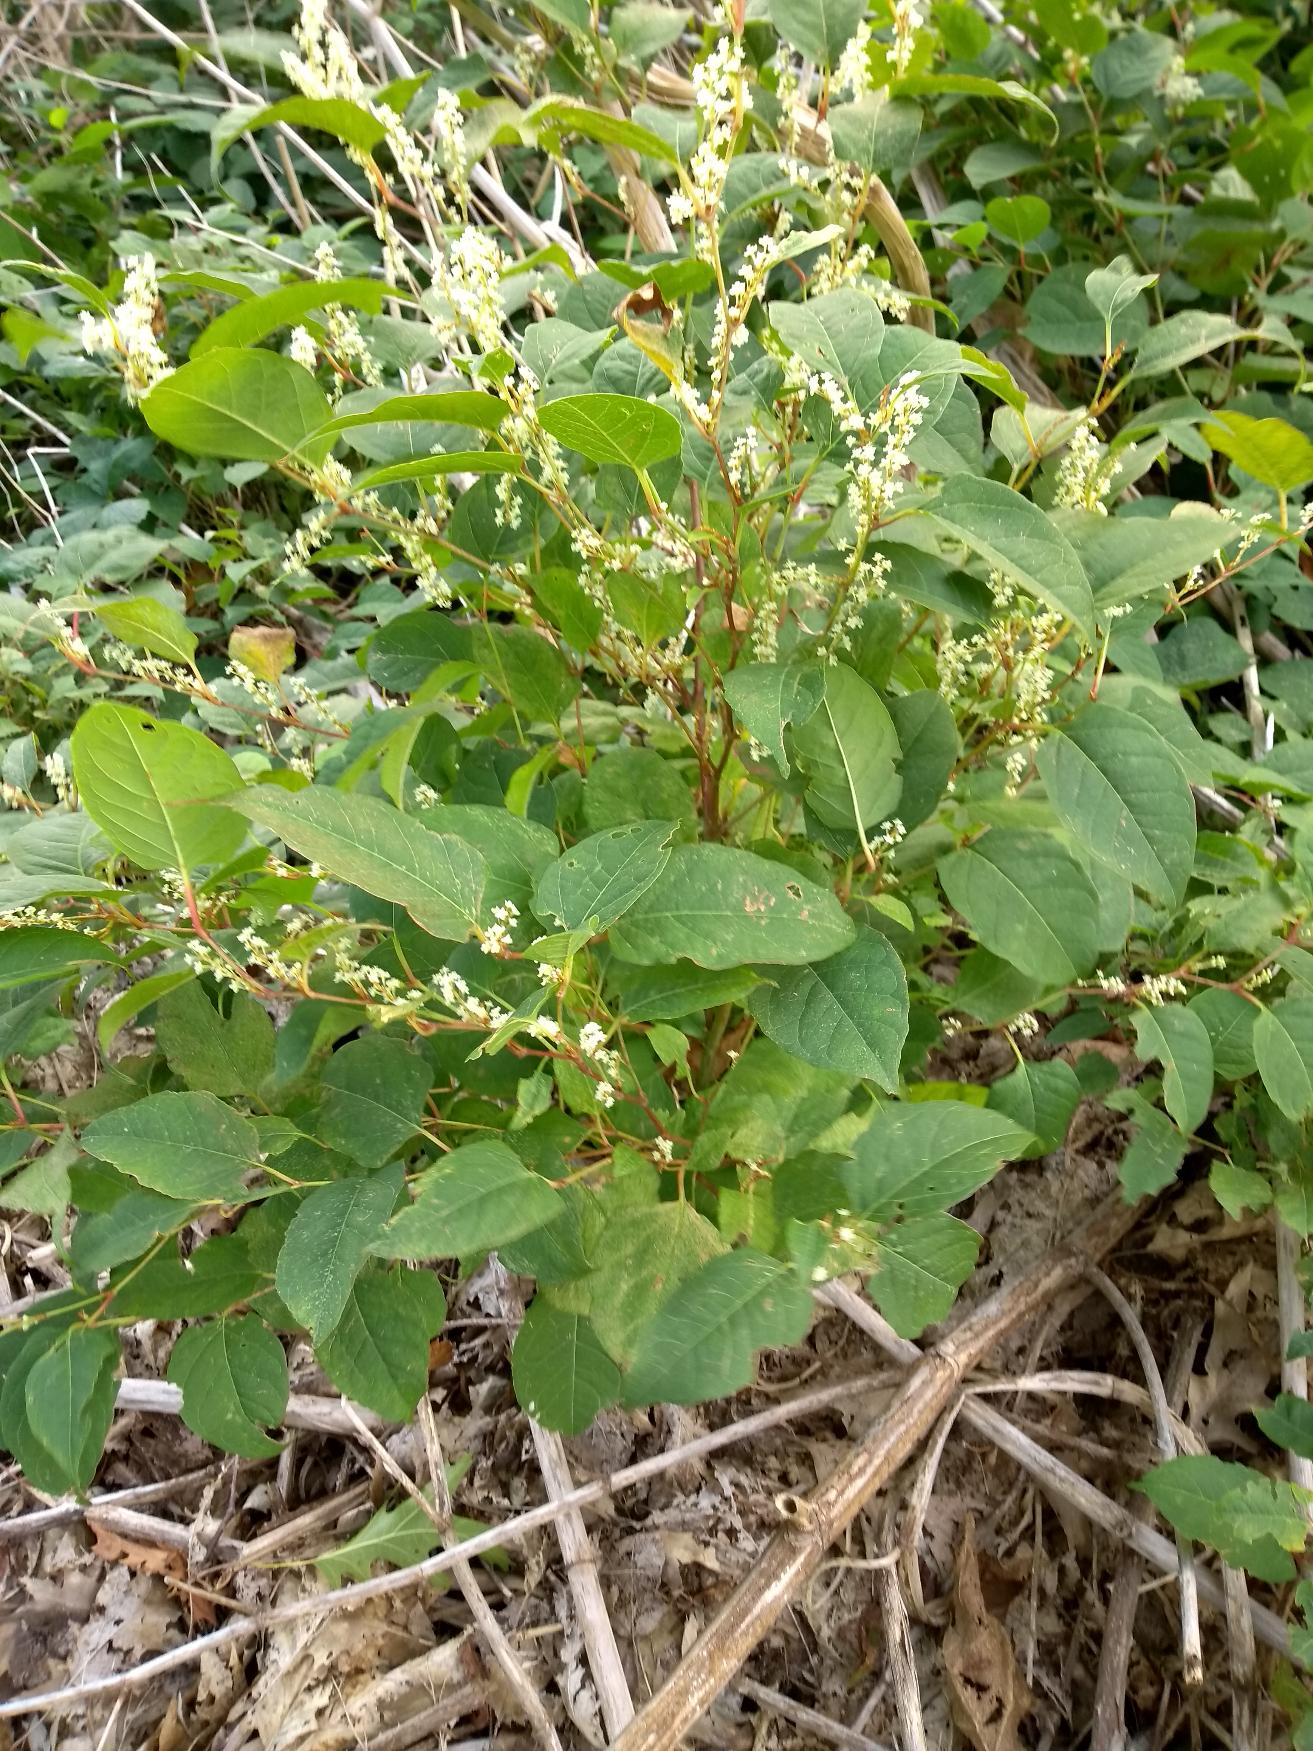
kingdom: Plantae
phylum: Tracheophyta
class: Magnoliopsida
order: Caryophyllales
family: Polygonaceae
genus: Reynoutria
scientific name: Reynoutria japonica
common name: Japan-pileurt
